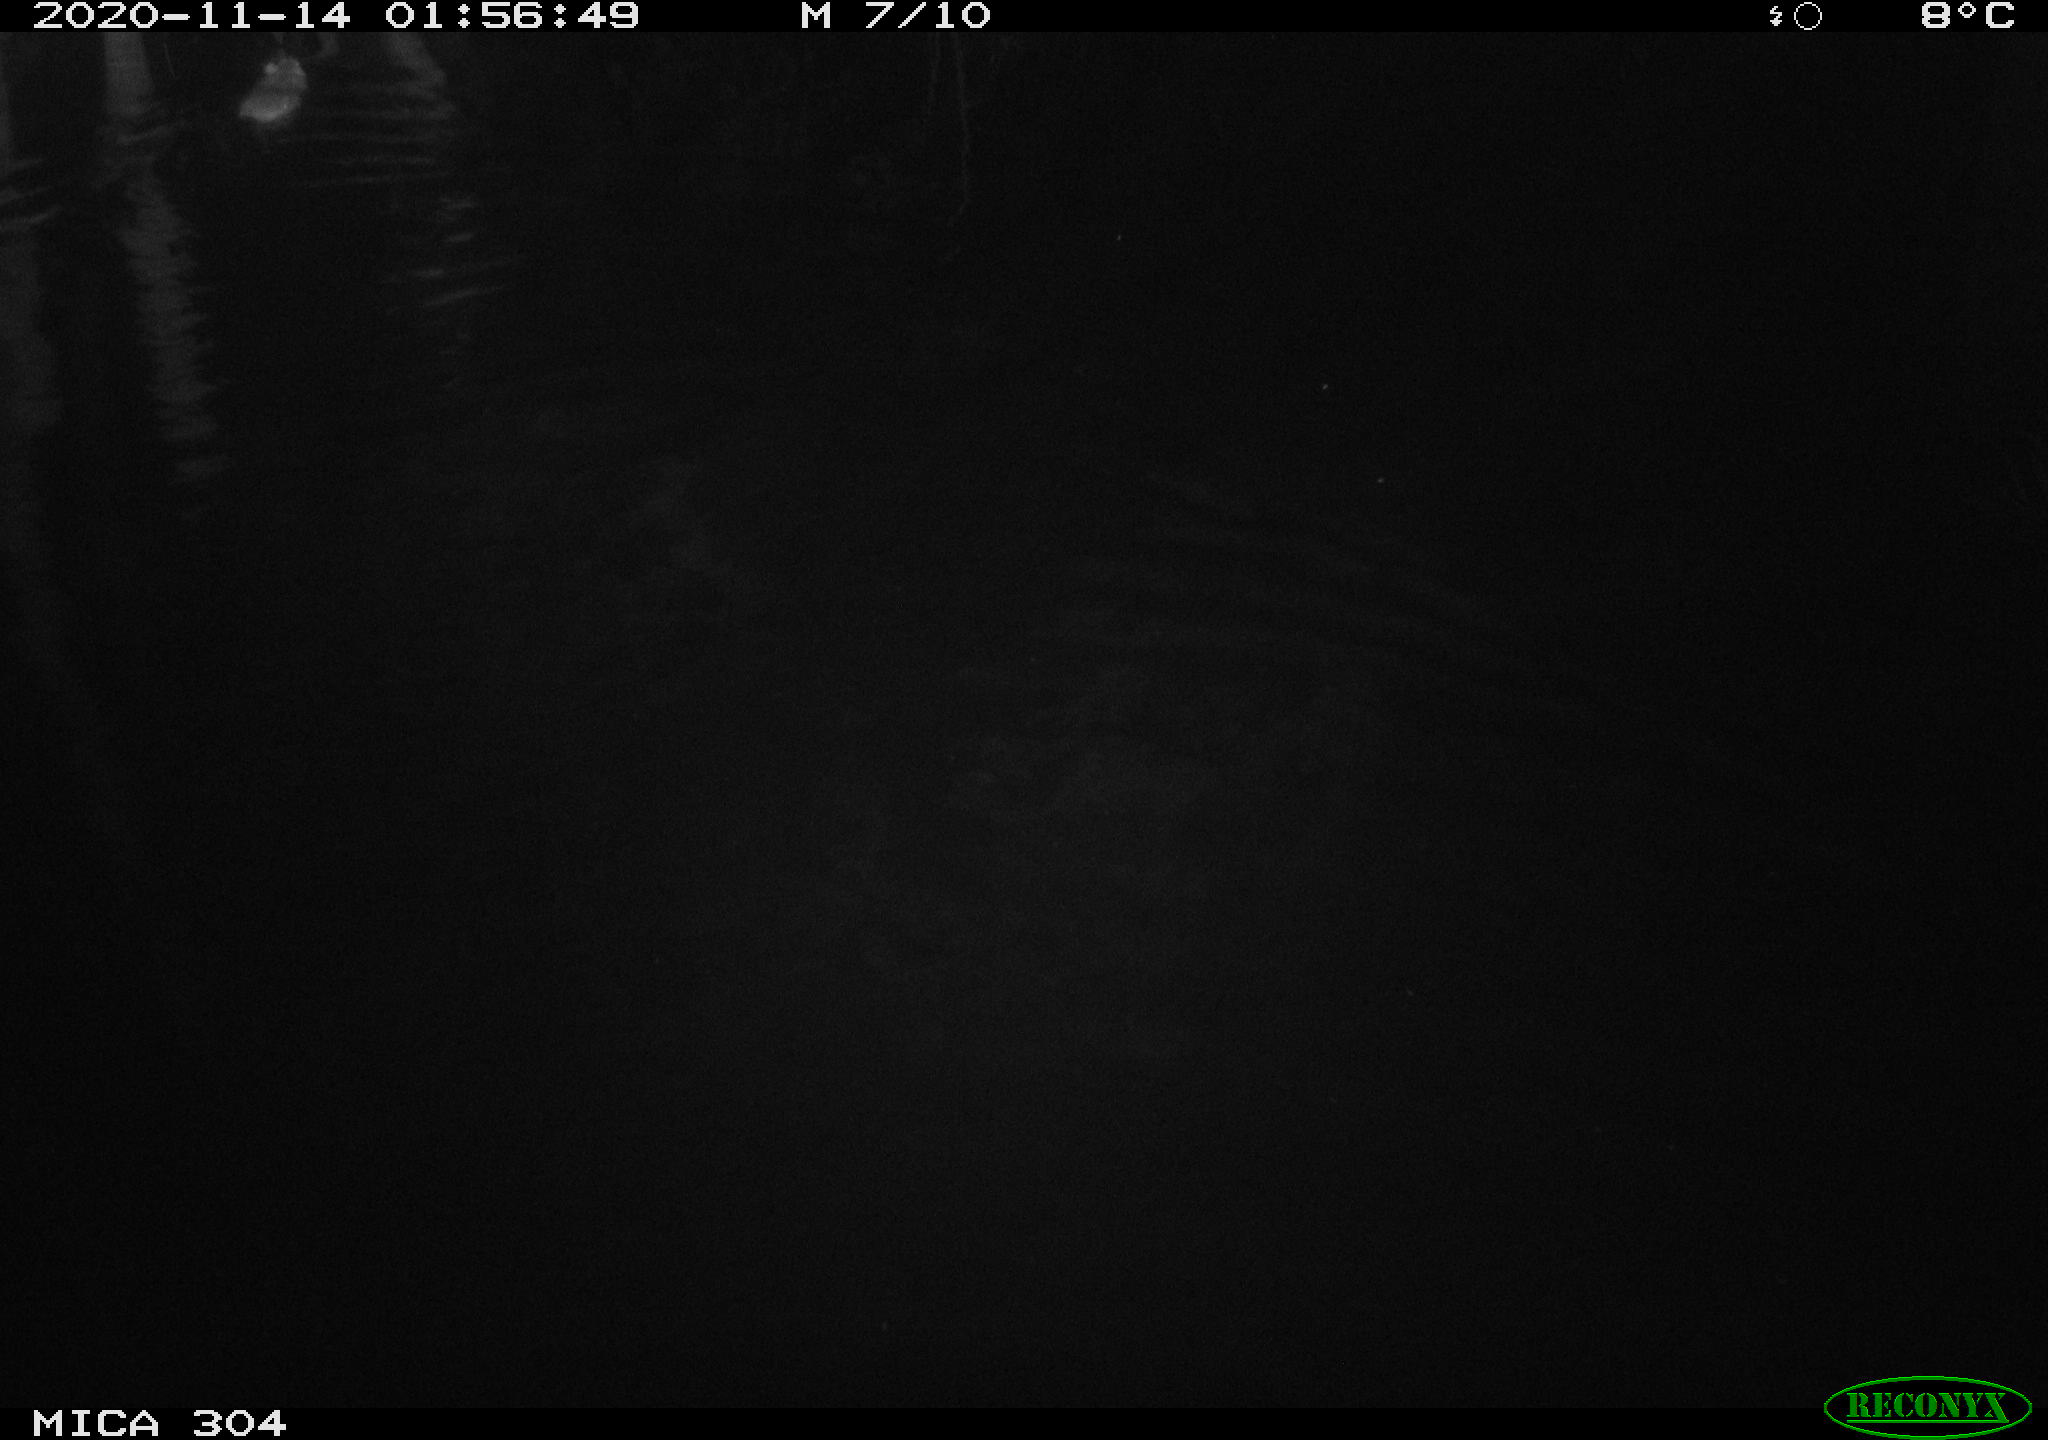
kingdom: Animalia
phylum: Chordata
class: Mammalia
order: Rodentia
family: Muridae
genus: Rattus
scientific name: Rattus norvegicus
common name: Brown rat
